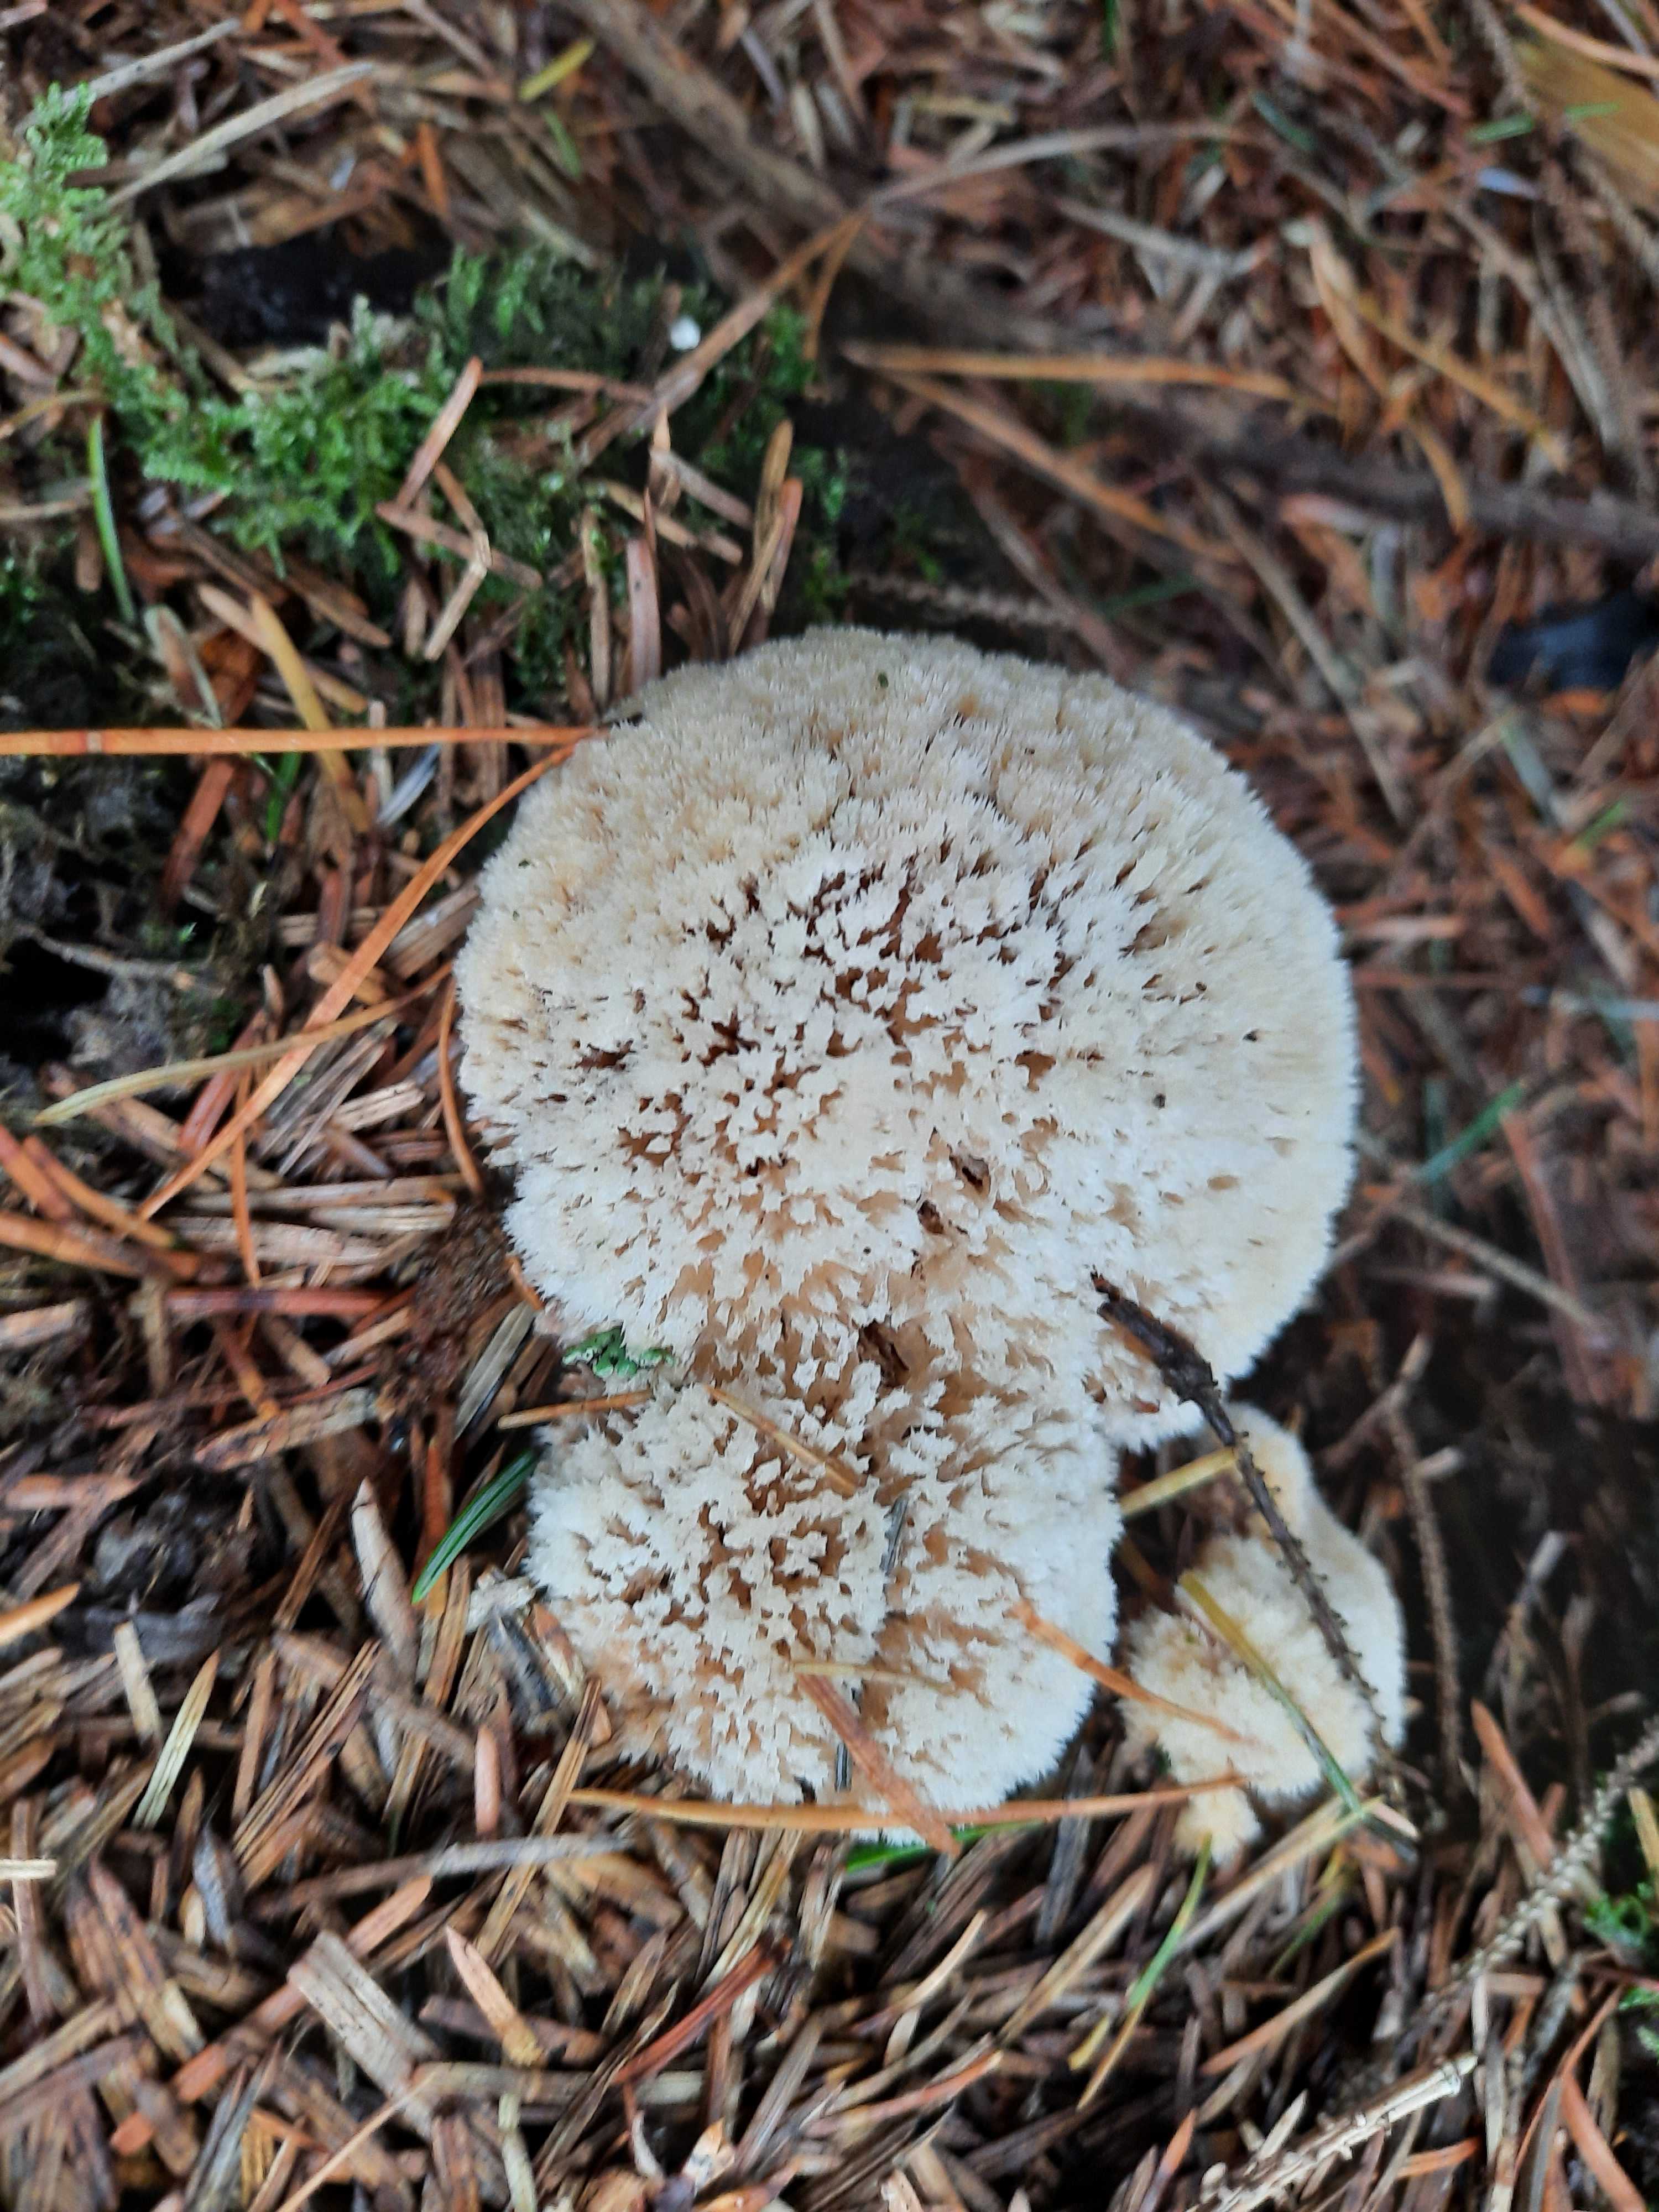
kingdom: Fungi
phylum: Basidiomycota
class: Agaricomycetes
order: Polyporales
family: Dacryobolaceae
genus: Postia
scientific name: Postia ptychogaster
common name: støvende kødporesvamp
